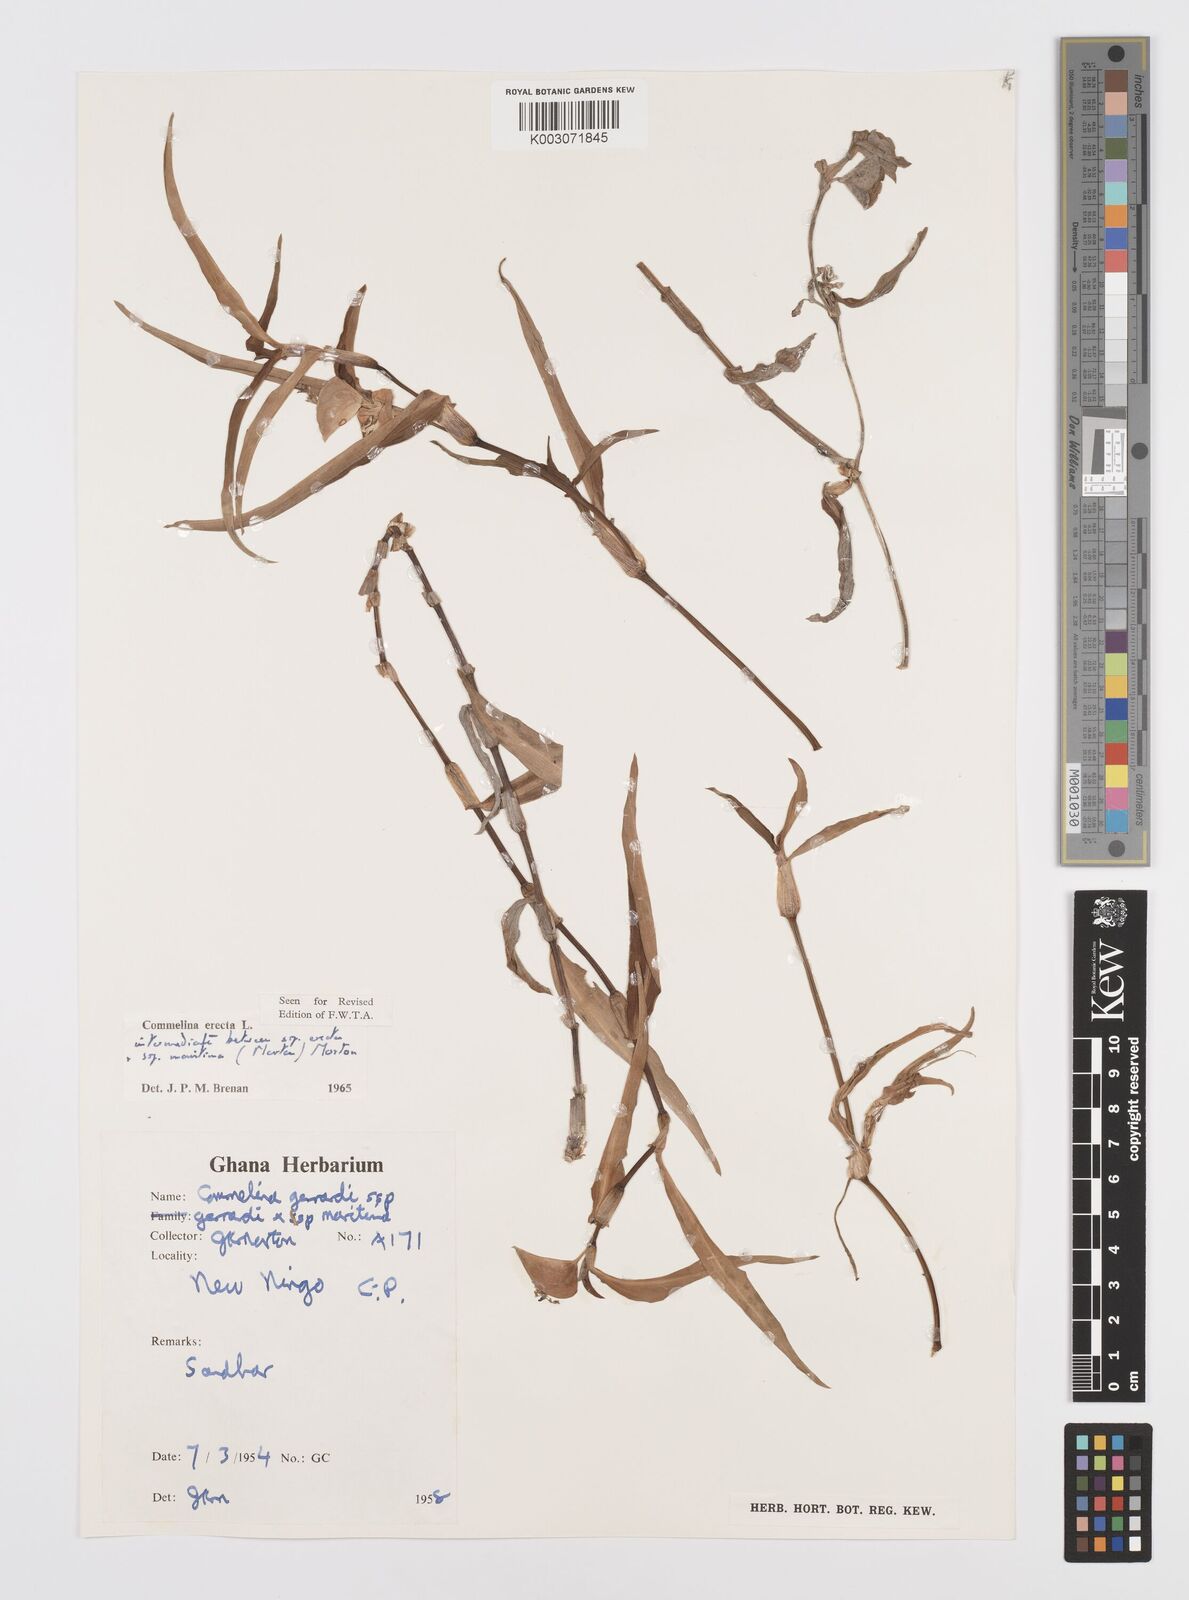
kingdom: Plantae
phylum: Tracheophyta
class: Liliopsida
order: Commelinales
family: Commelinaceae
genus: Commelina
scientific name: Commelina erecta
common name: Blousel blommetjie
